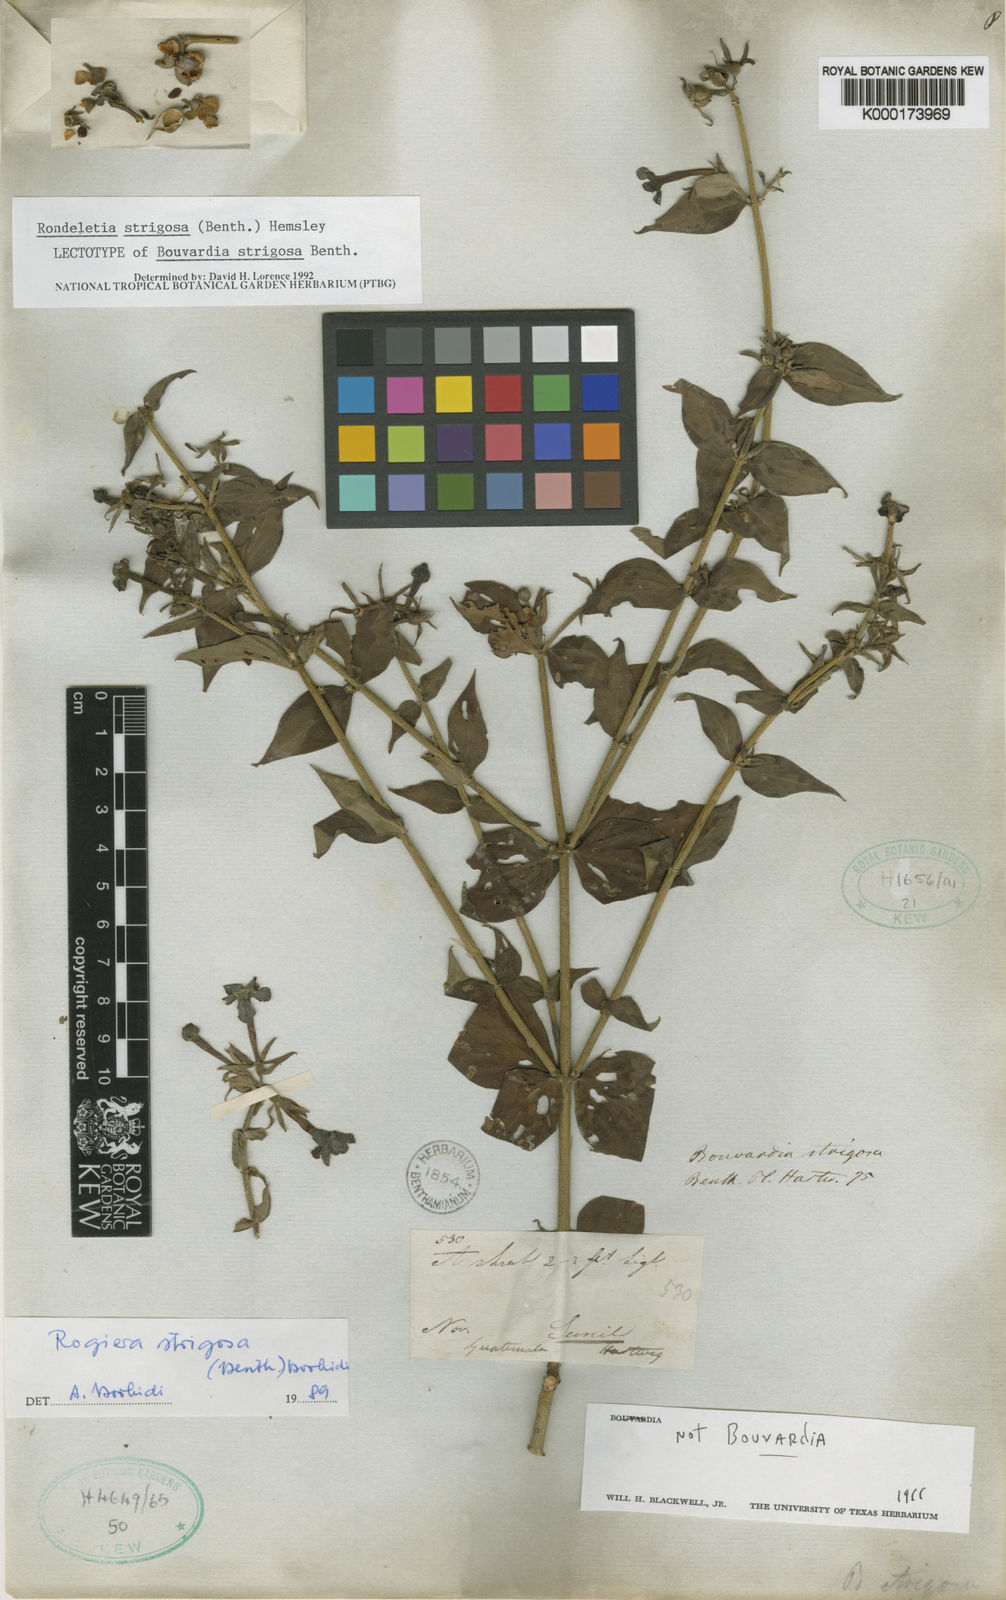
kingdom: Plantae
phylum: Tracheophyta
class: Magnoliopsida
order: Gentianales
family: Rubiaceae
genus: Rovaeanthus
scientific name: Rovaeanthus strigosus
